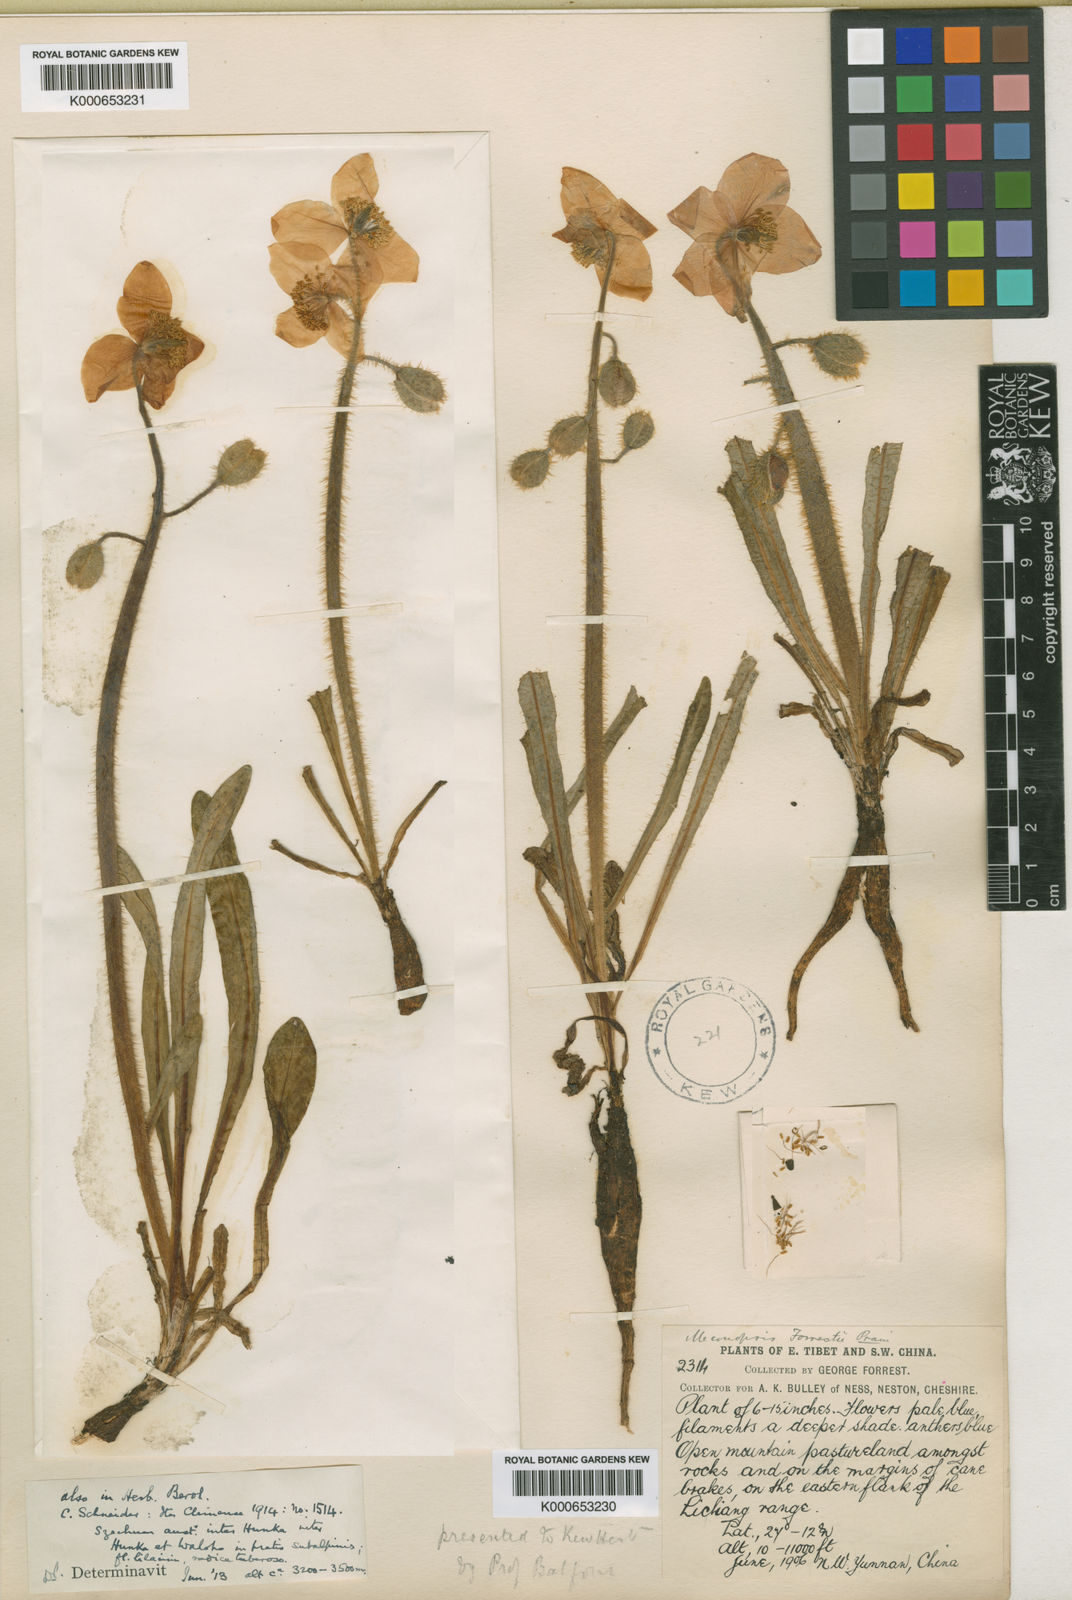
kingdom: Plantae
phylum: Tracheophyta
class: Magnoliopsida
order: Ranunculales
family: Papaveraceae
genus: Meconopsis
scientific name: Meconopsis forrestii
